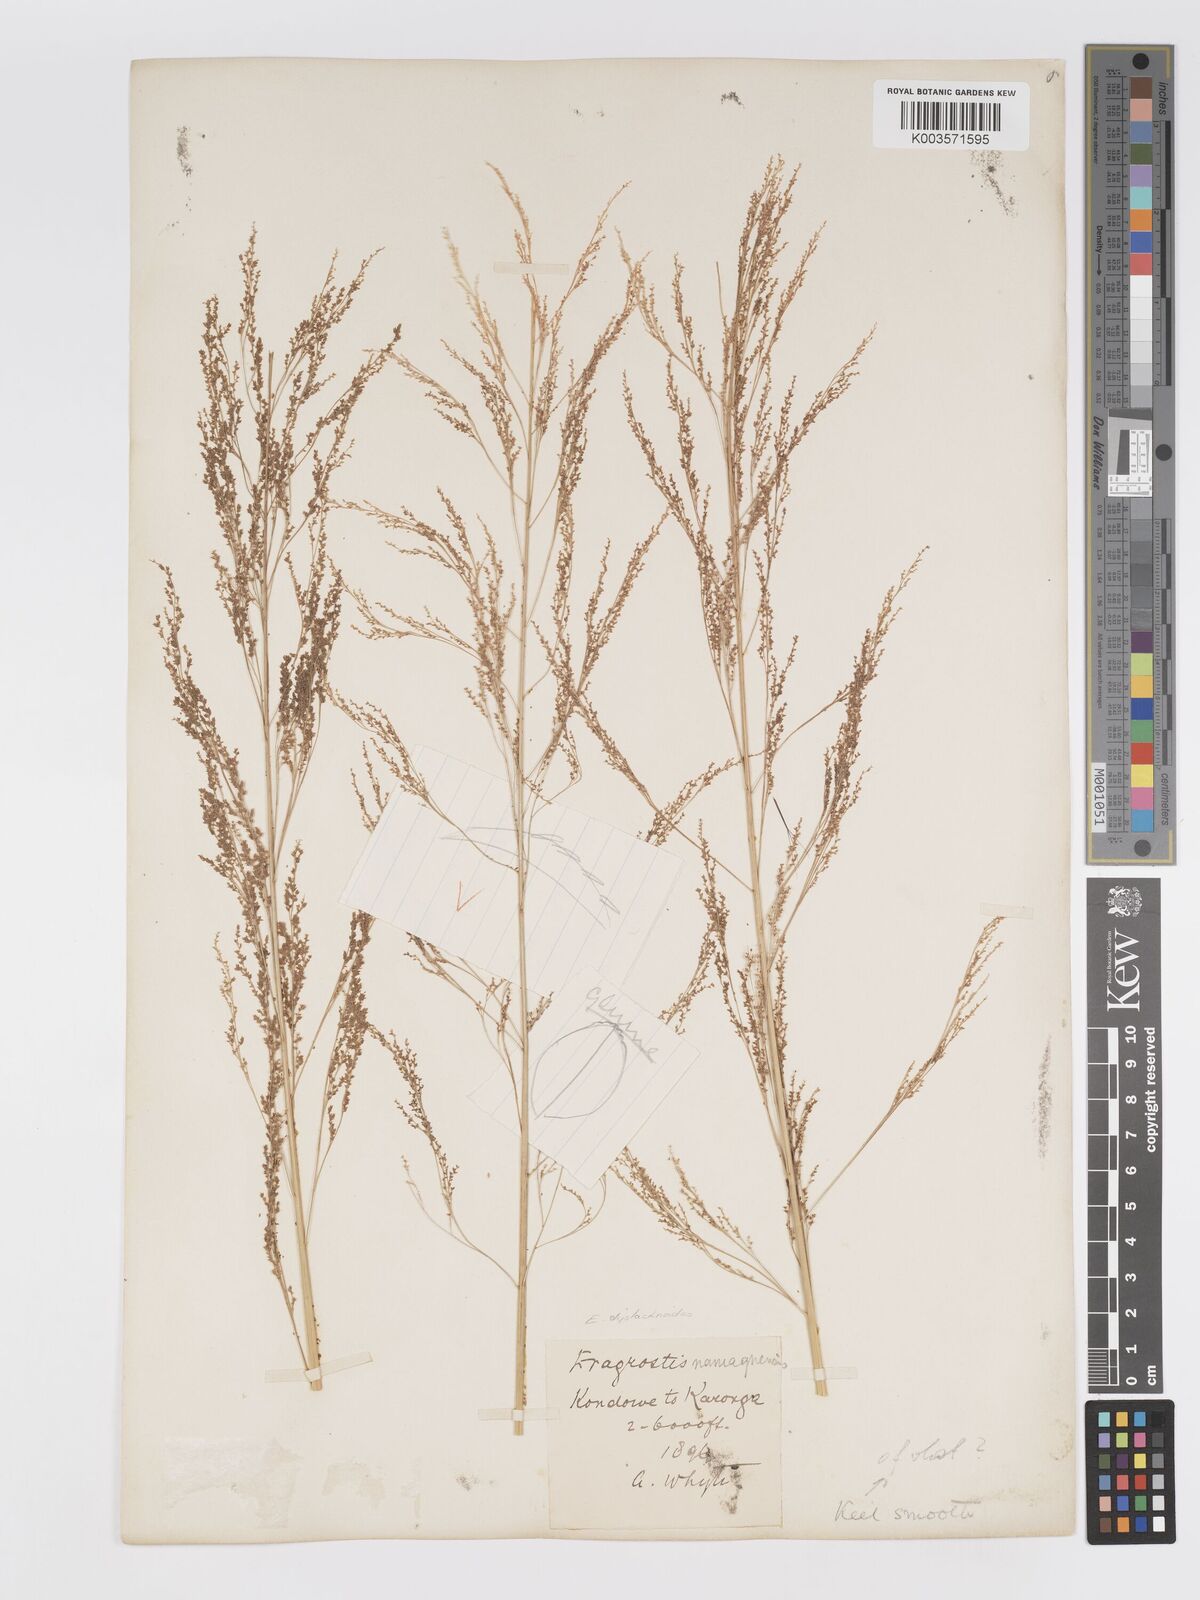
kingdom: Plantae
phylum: Tracheophyta
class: Liliopsida
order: Poales
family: Poaceae
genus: Eragrostis
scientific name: Eragrostis japonica
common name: Pond lovegrass
